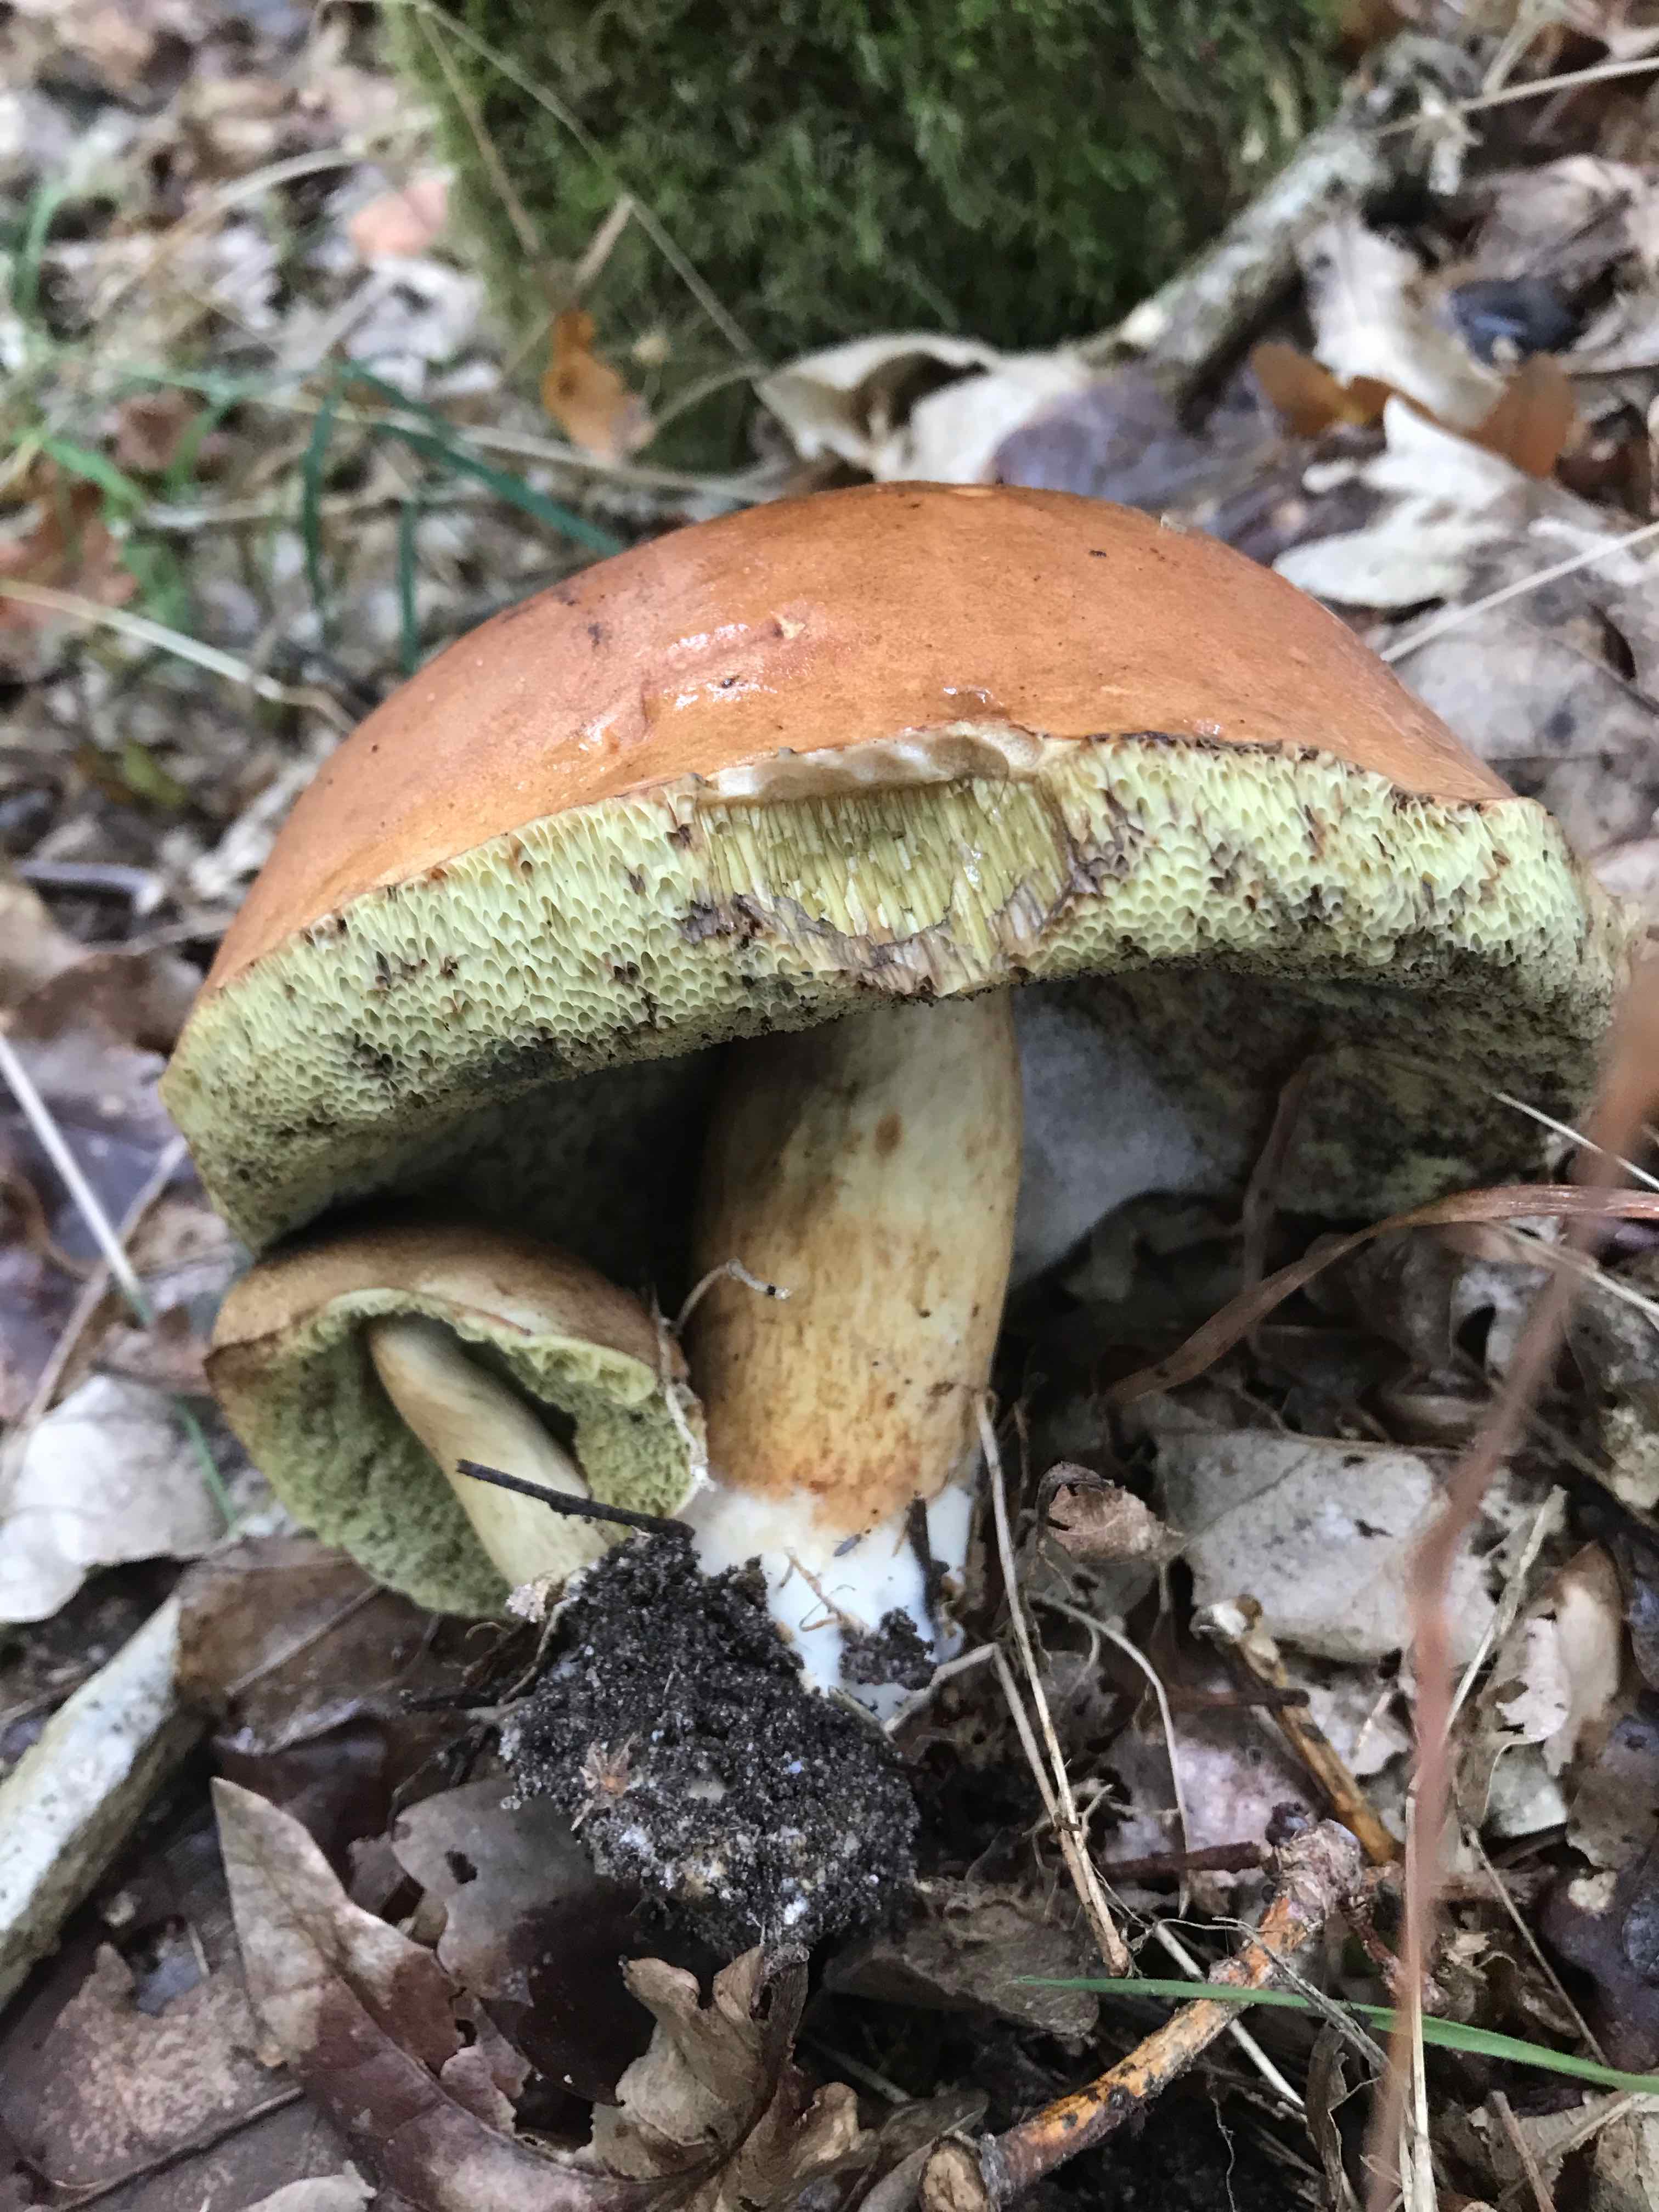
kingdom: Fungi
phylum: Basidiomycota
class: Agaricomycetes
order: Boletales
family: Boletaceae
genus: Imleria
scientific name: Imleria badia
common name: brunstokket rørhat
